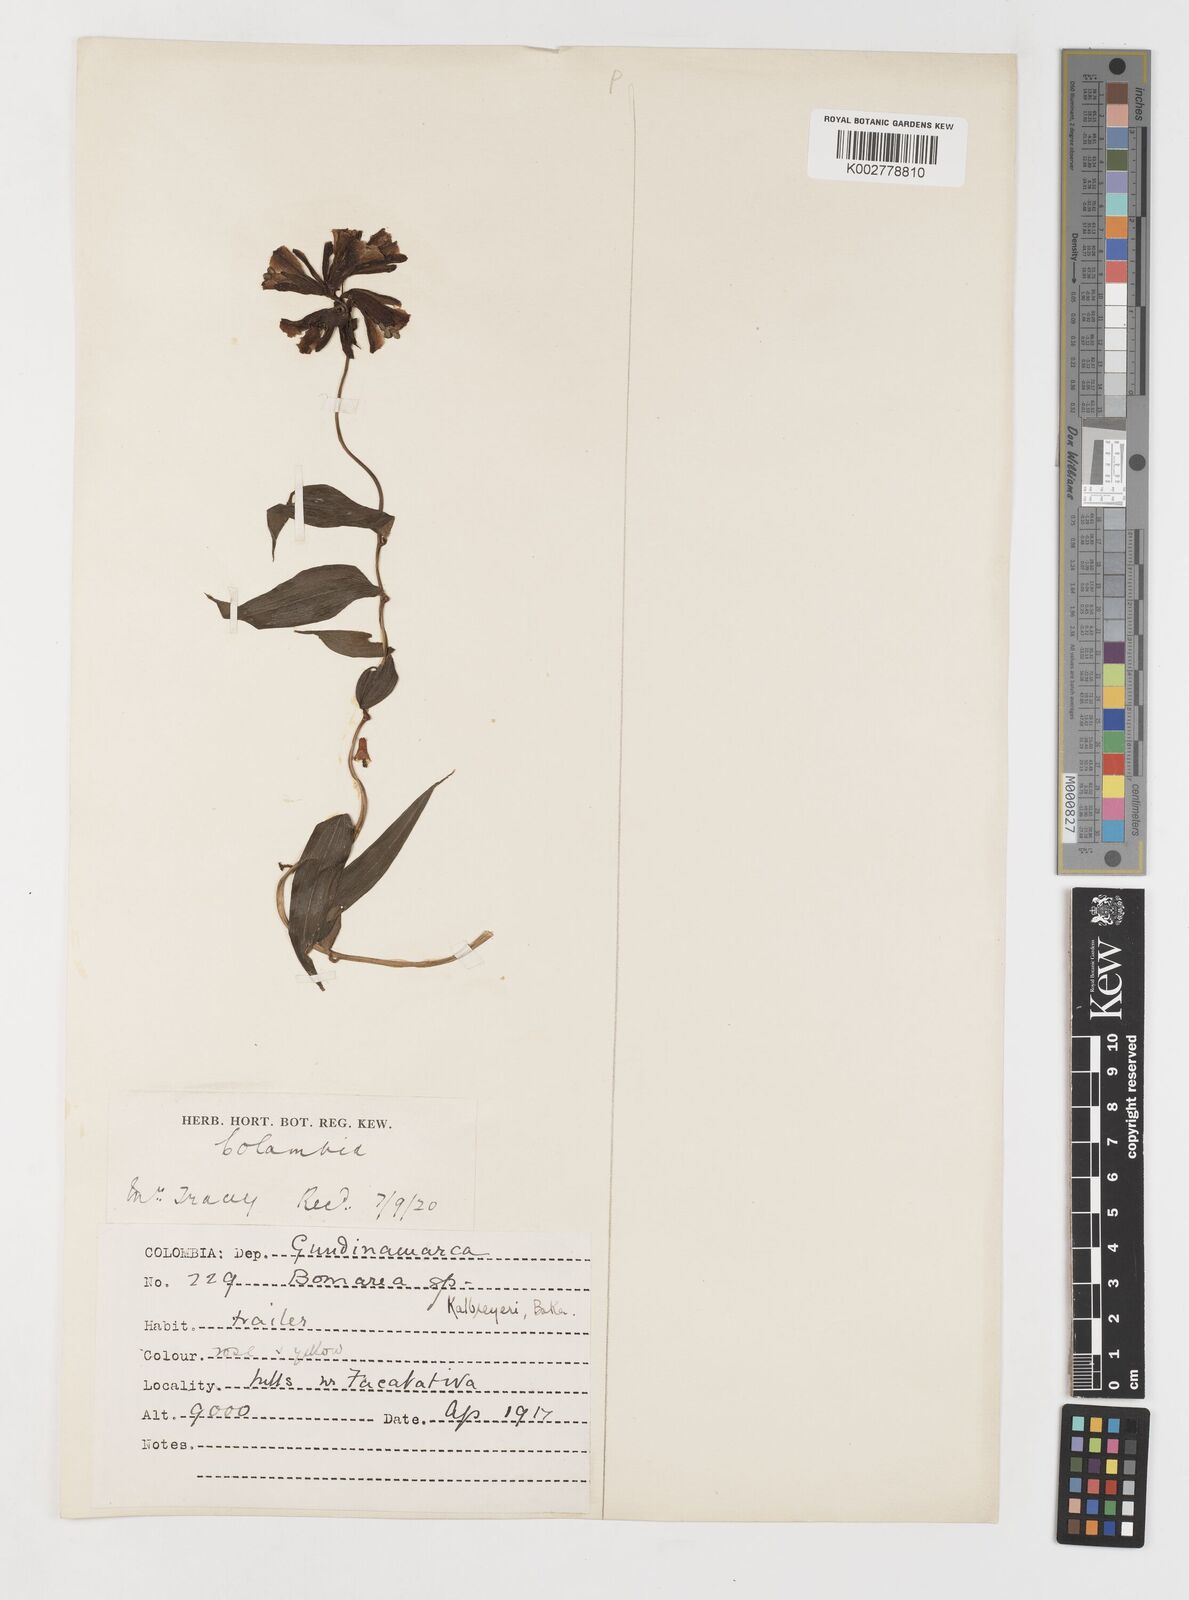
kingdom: Plantae
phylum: Tracheophyta
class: Liliopsida
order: Liliales
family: Alstroemeriaceae
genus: Bomarea
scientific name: Bomarea hirsuta
